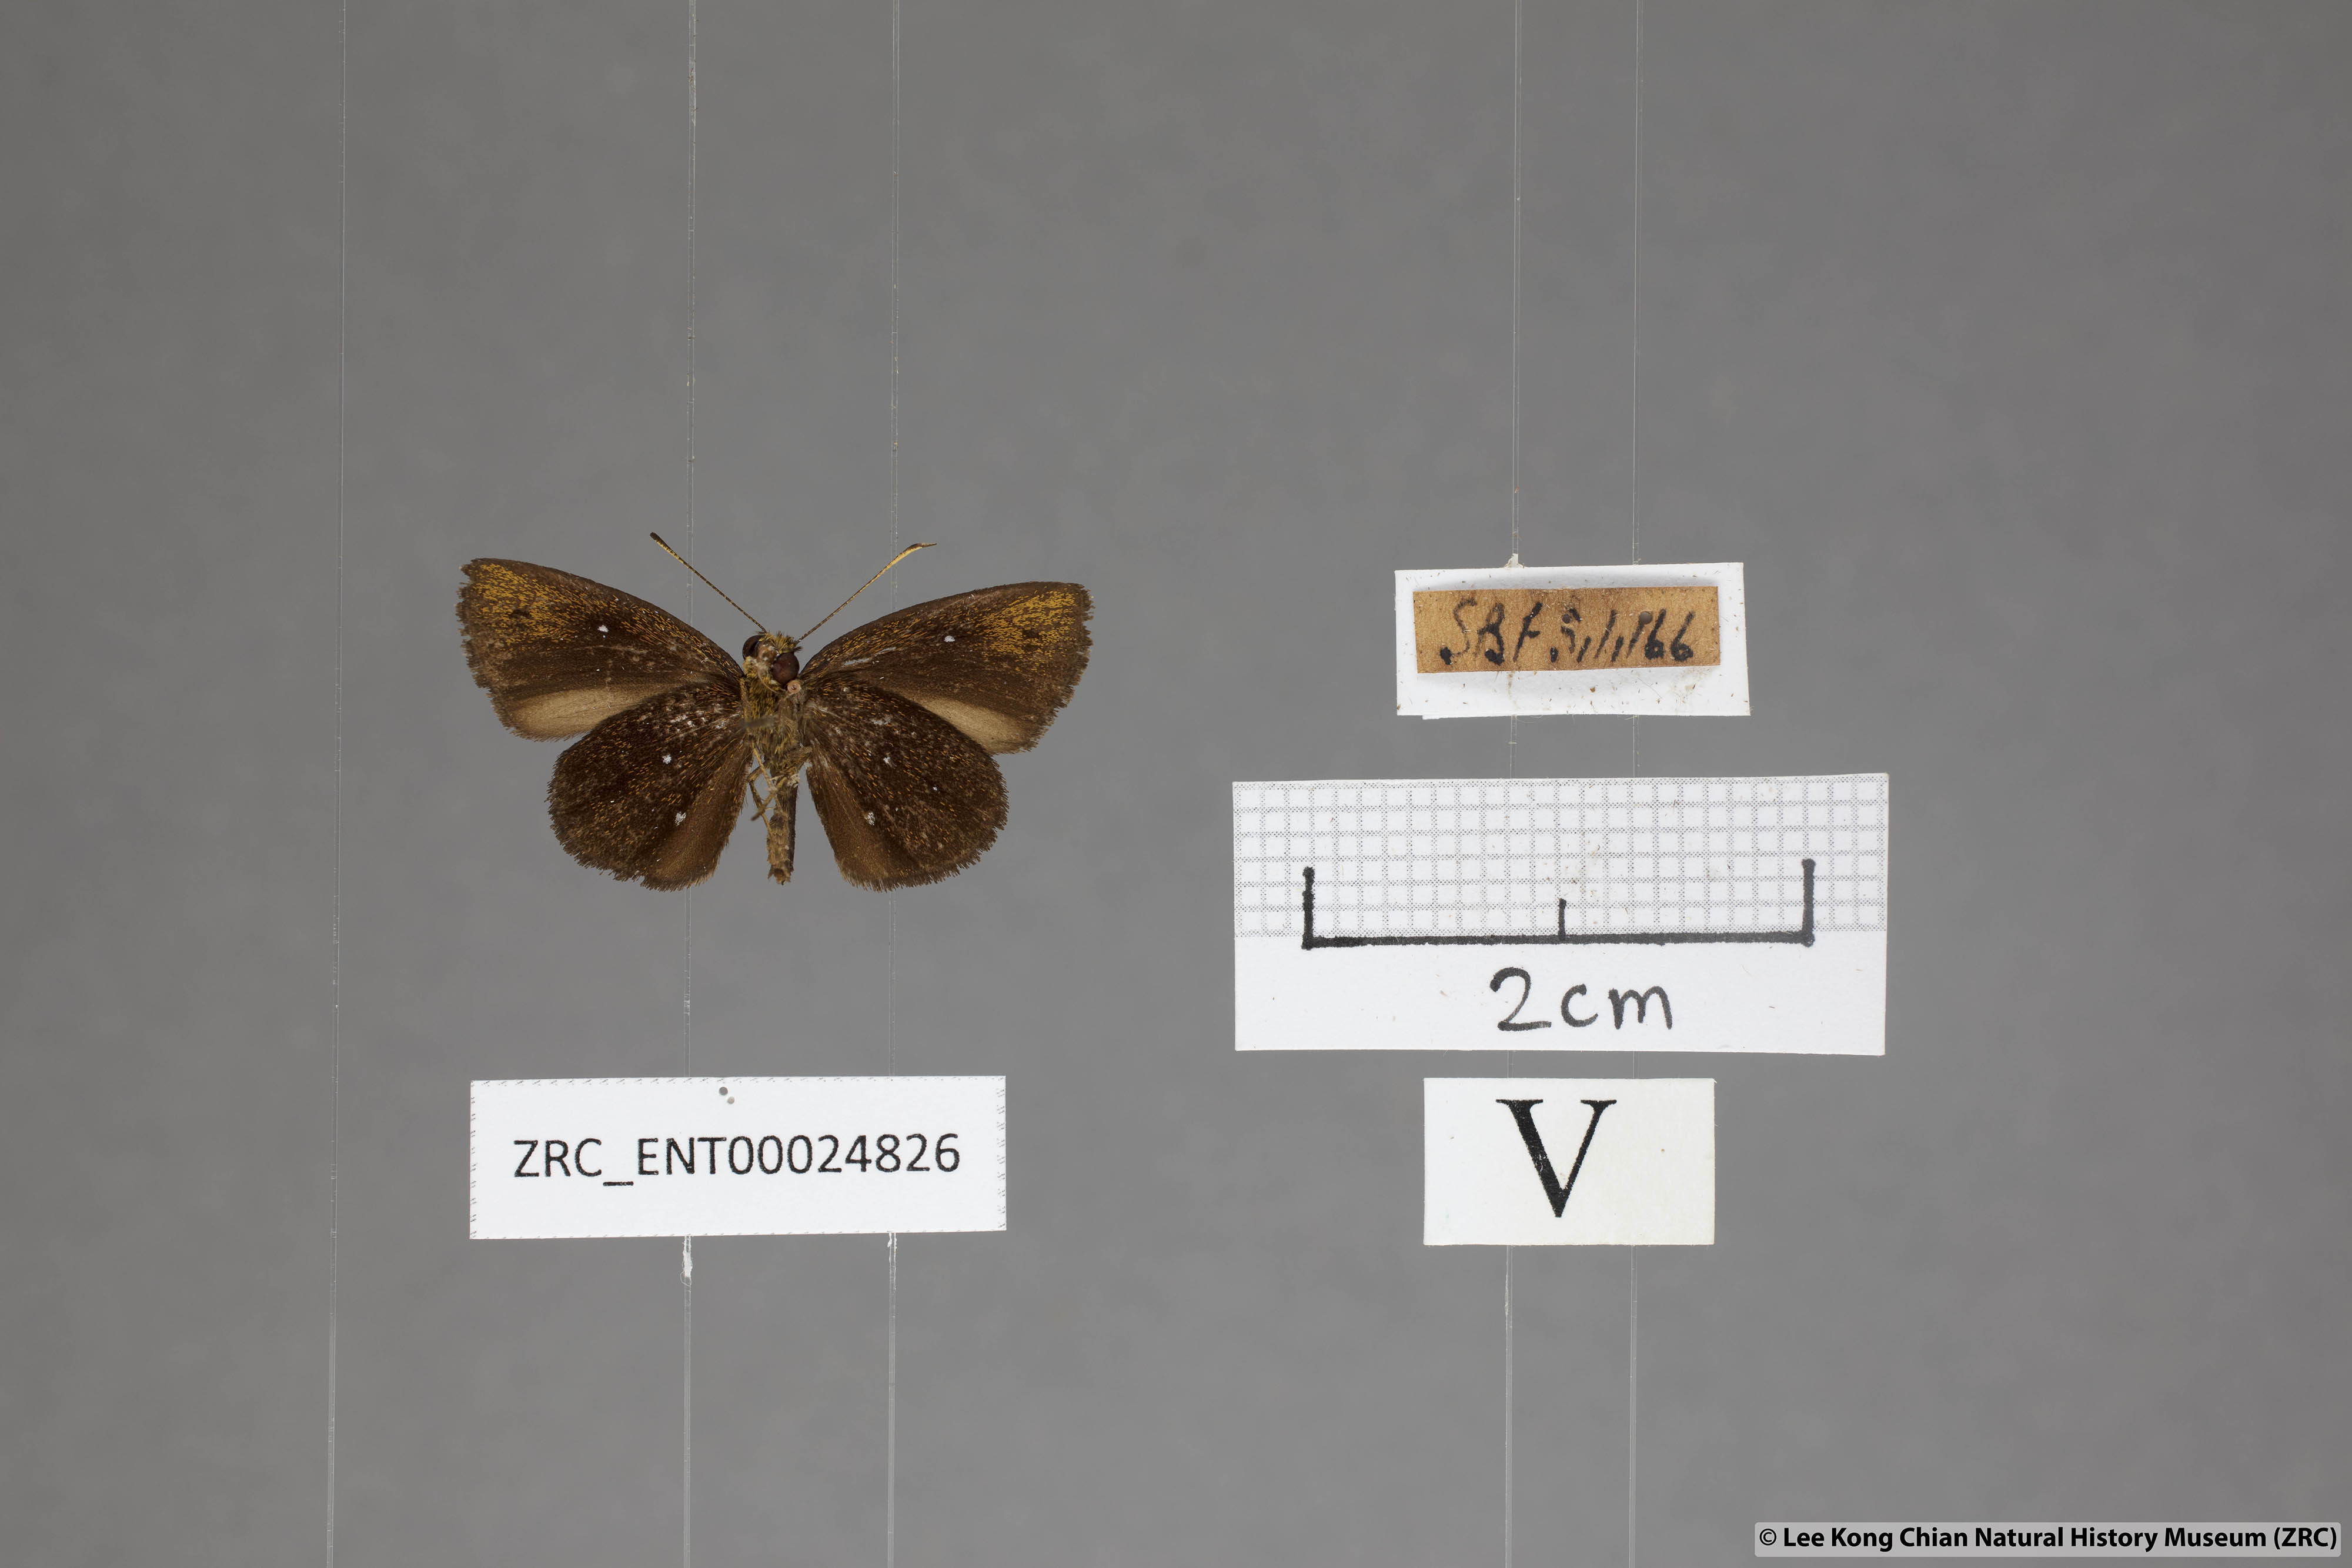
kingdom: Animalia
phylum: Arthropoda
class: Insecta
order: Lepidoptera
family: Hesperiidae
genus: Iambrix
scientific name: Iambrix stellifer
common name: Starry bob
